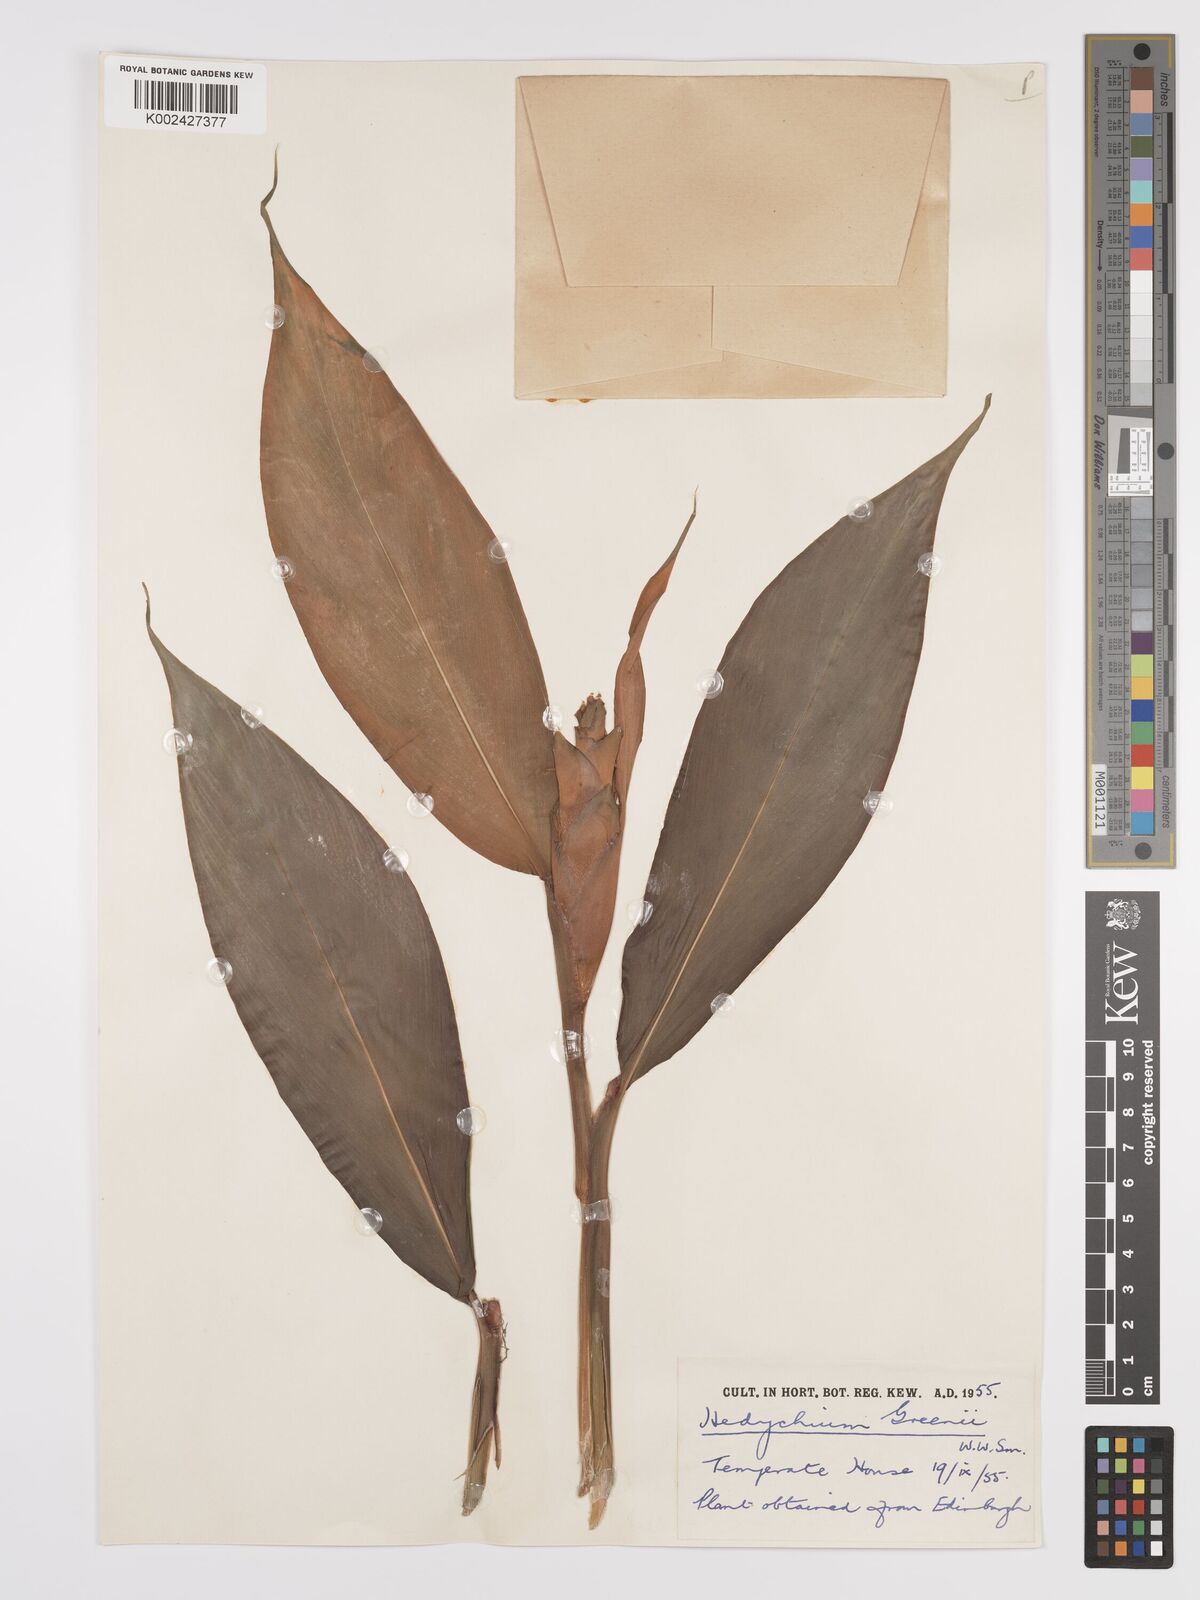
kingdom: Plantae
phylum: Tracheophyta
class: Liliopsida
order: Zingiberales
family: Zingiberaceae
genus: Hedychium
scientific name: Hedychium greenii
